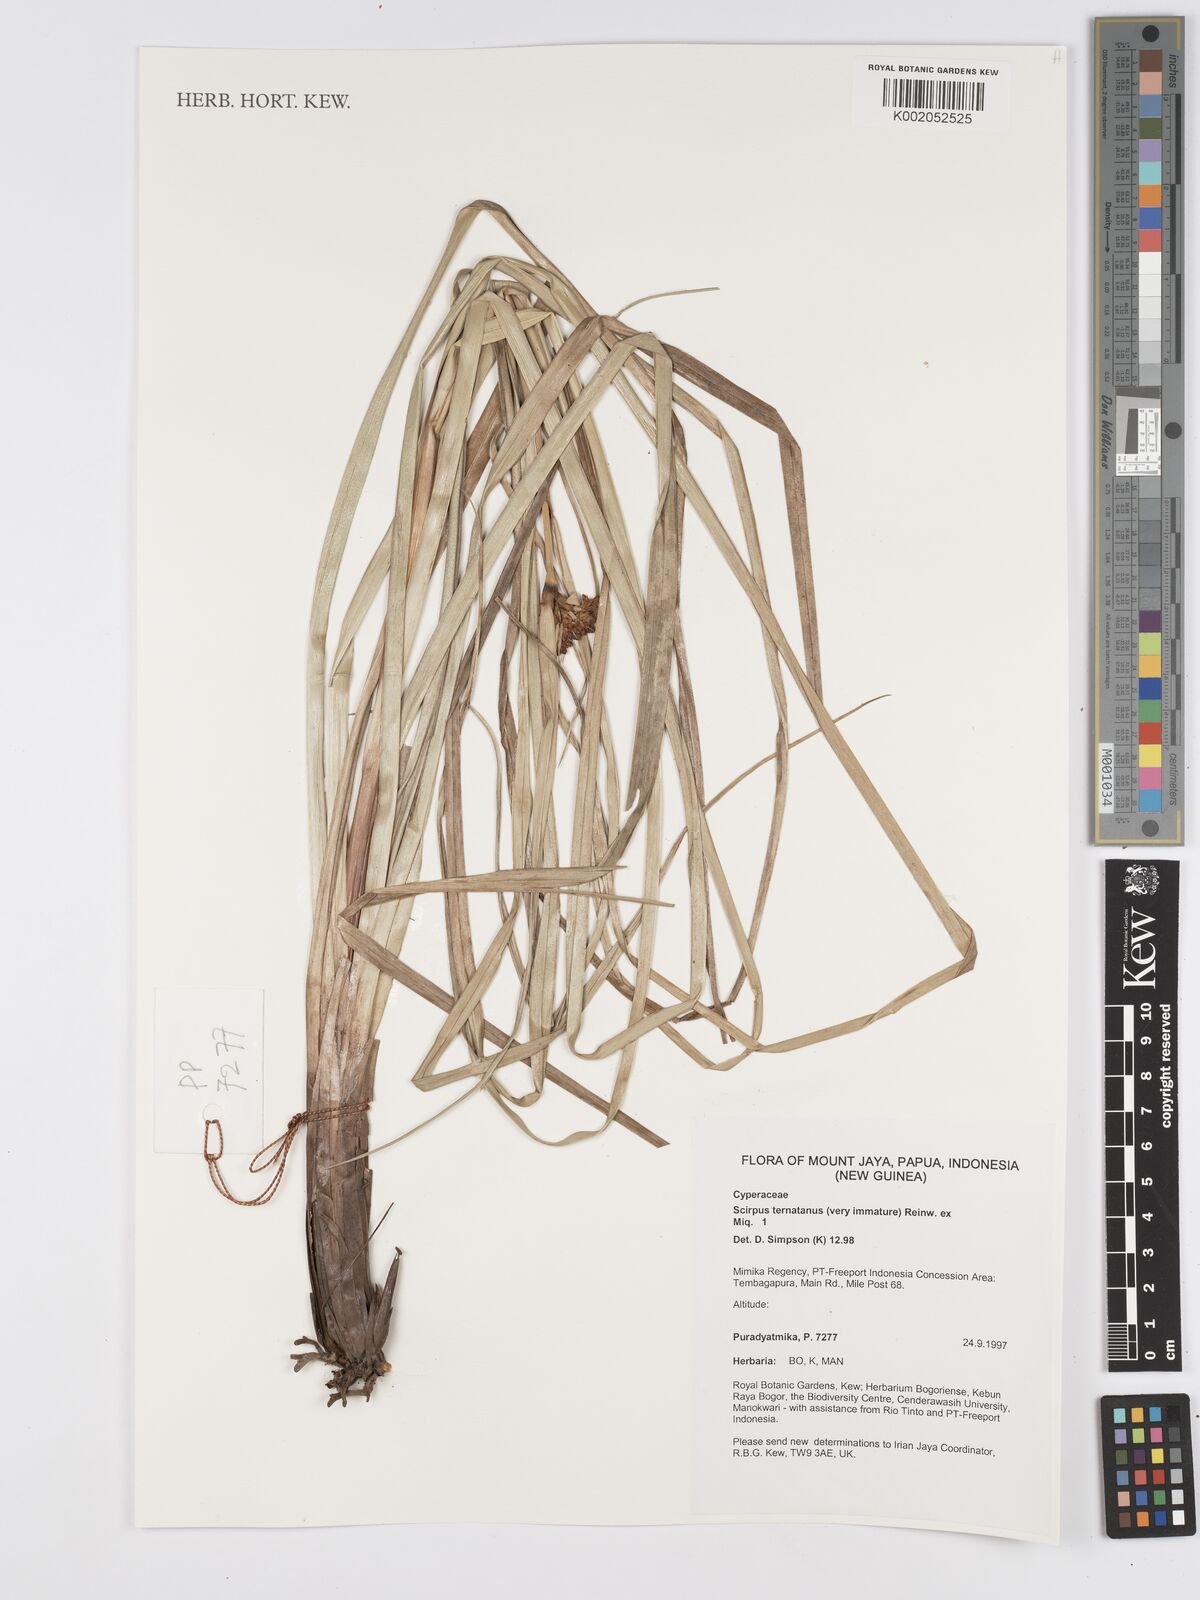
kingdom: Plantae
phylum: Tracheophyta
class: Liliopsida
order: Poales
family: Cyperaceae
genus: Scirpus
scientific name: Scirpus ternatanus
